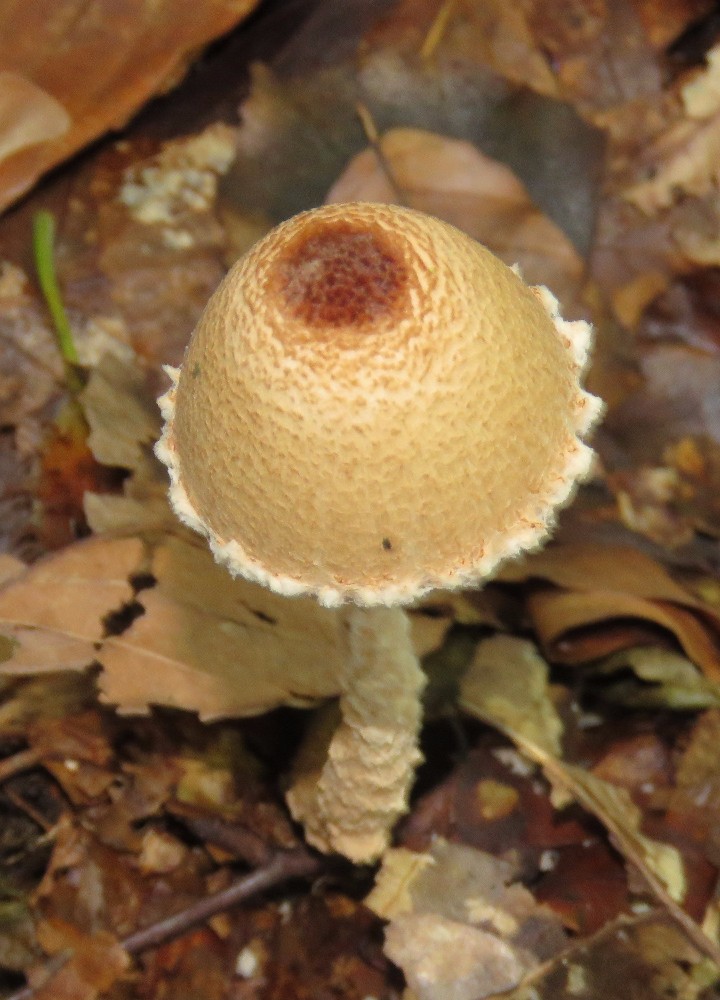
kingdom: Fungi
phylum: Basidiomycota
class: Agaricomycetes
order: Agaricales
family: Agaricaceae
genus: Lepiota
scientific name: Lepiota magnispora
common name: gulfnugget parasolhat
